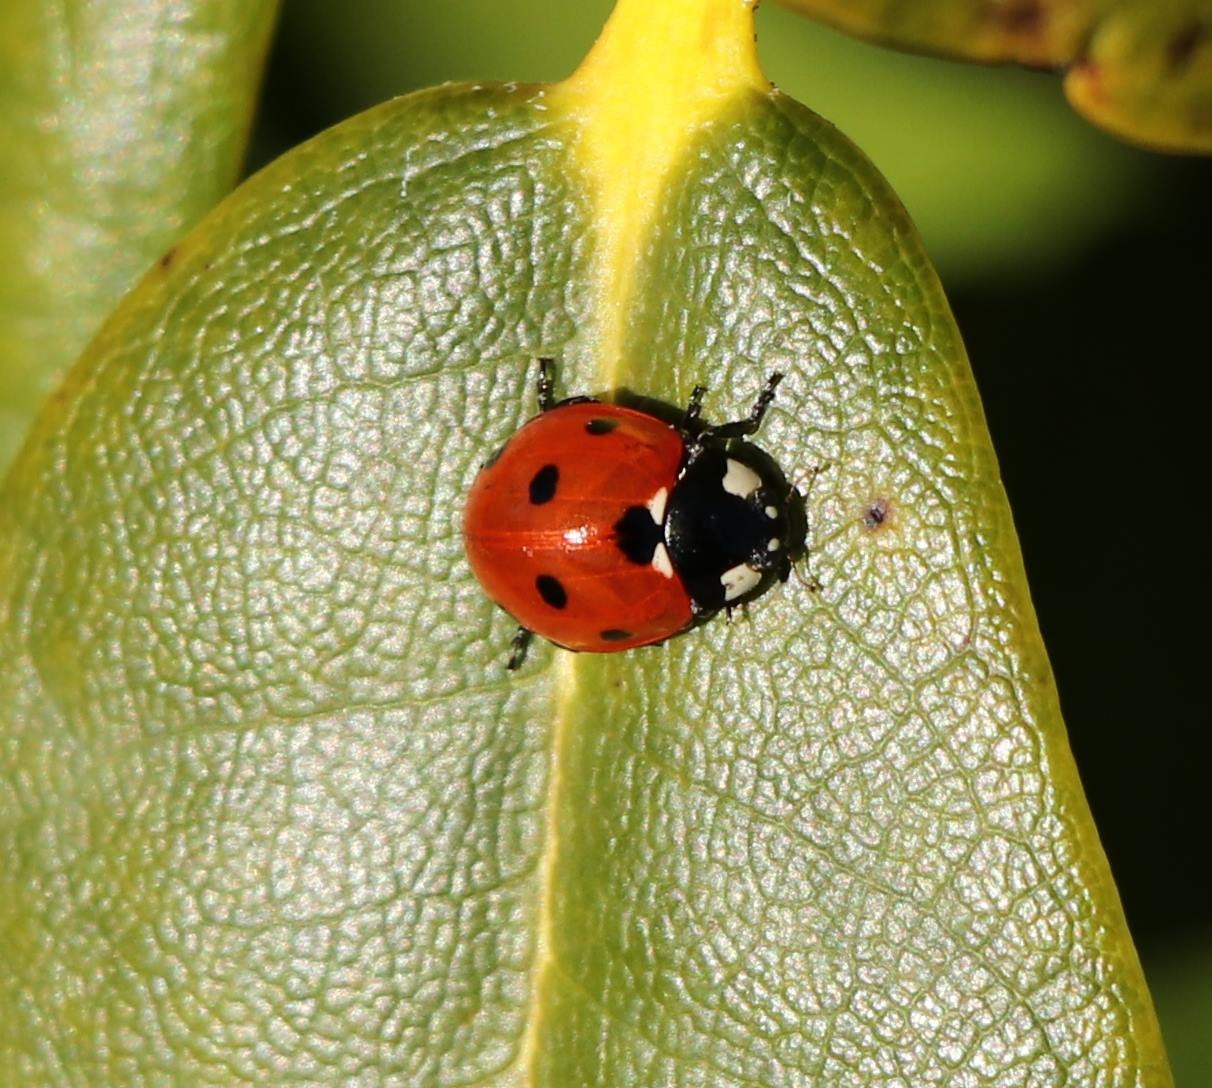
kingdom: Animalia
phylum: Arthropoda
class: Insecta
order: Coleoptera
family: Coccinellidae
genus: Coccinella
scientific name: Coccinella septempunctata
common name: Syvplettet mariehøne
